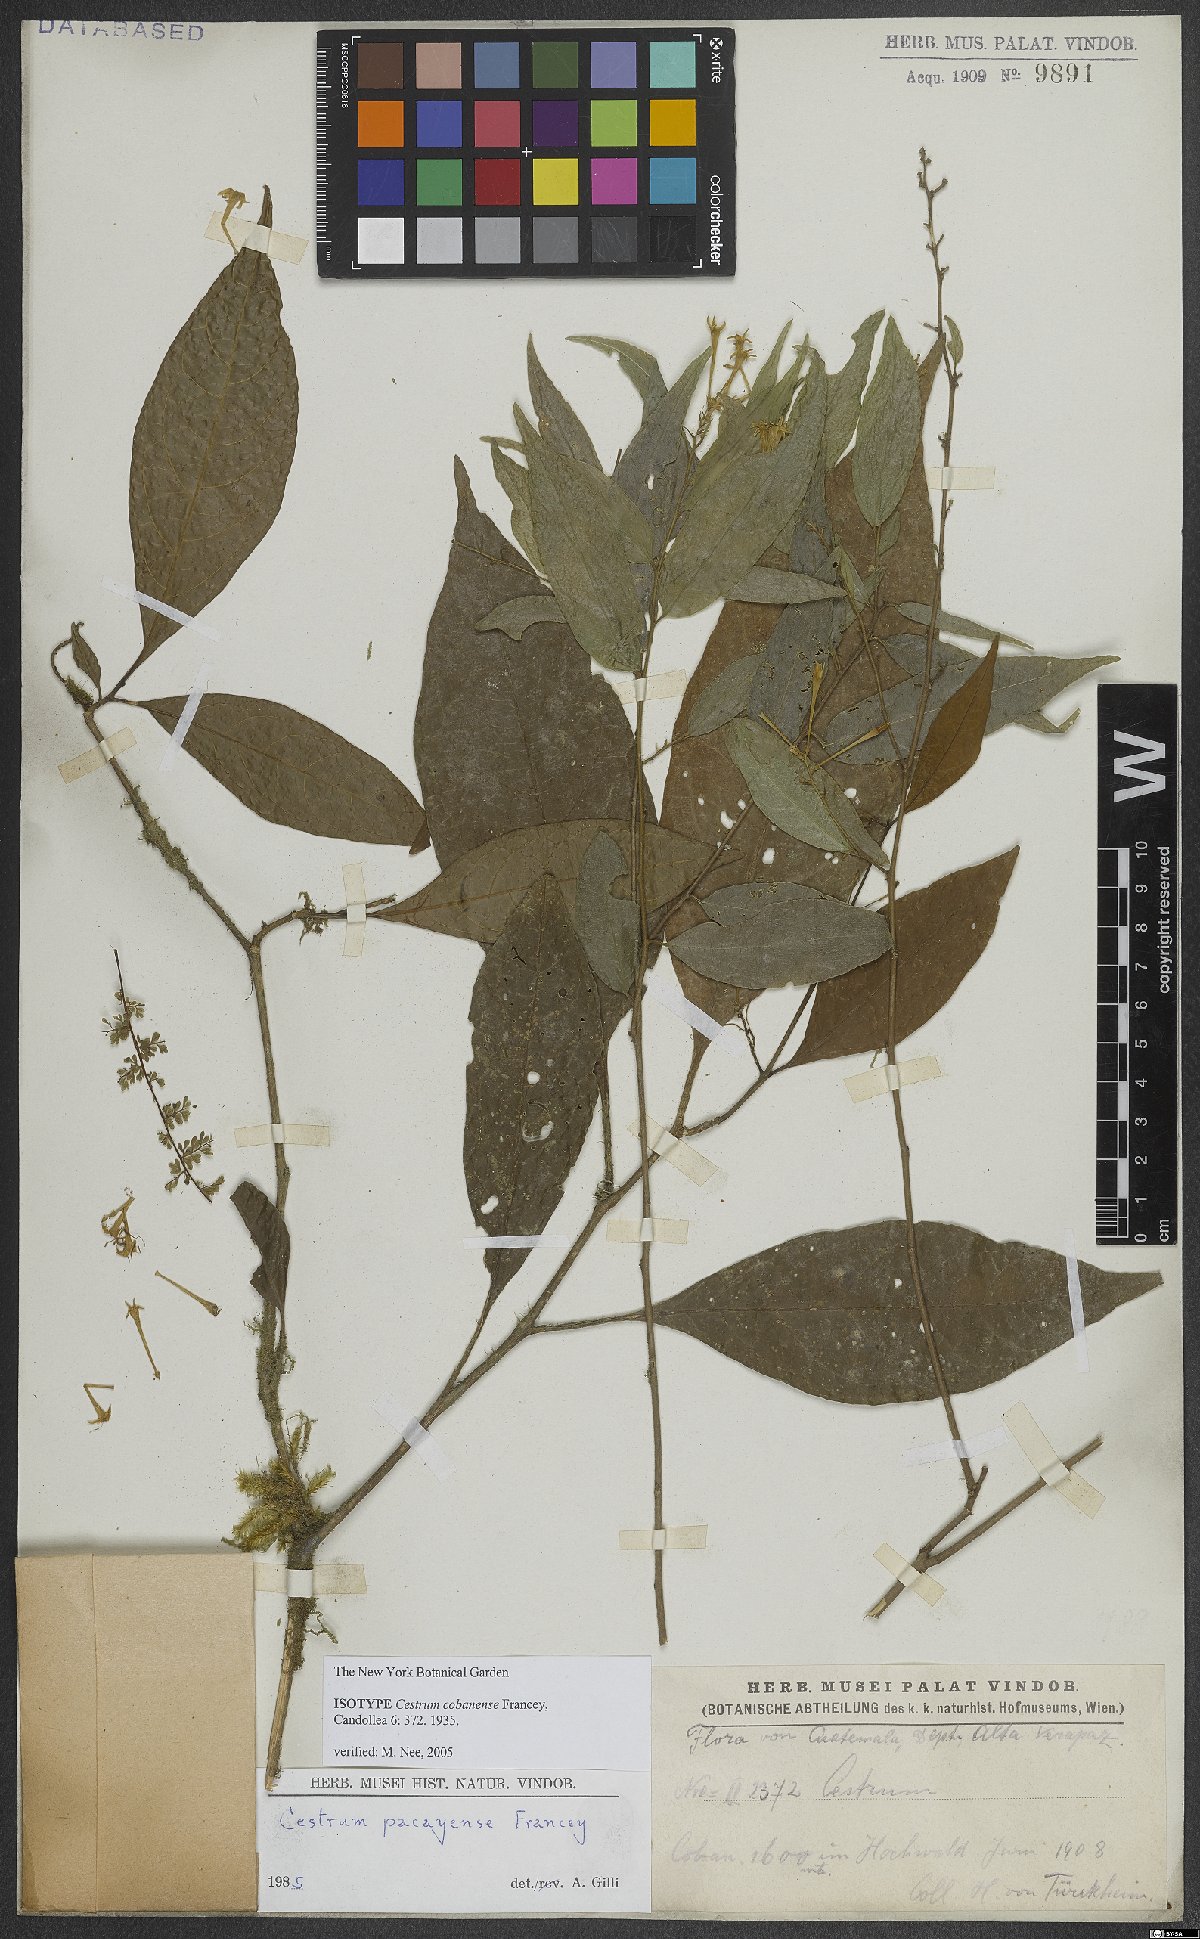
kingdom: Plantae
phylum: Tracheophyta
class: Magnoliopsida
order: Solanales
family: Solanaceae
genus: Cestrum
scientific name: Cestrum cobanense
